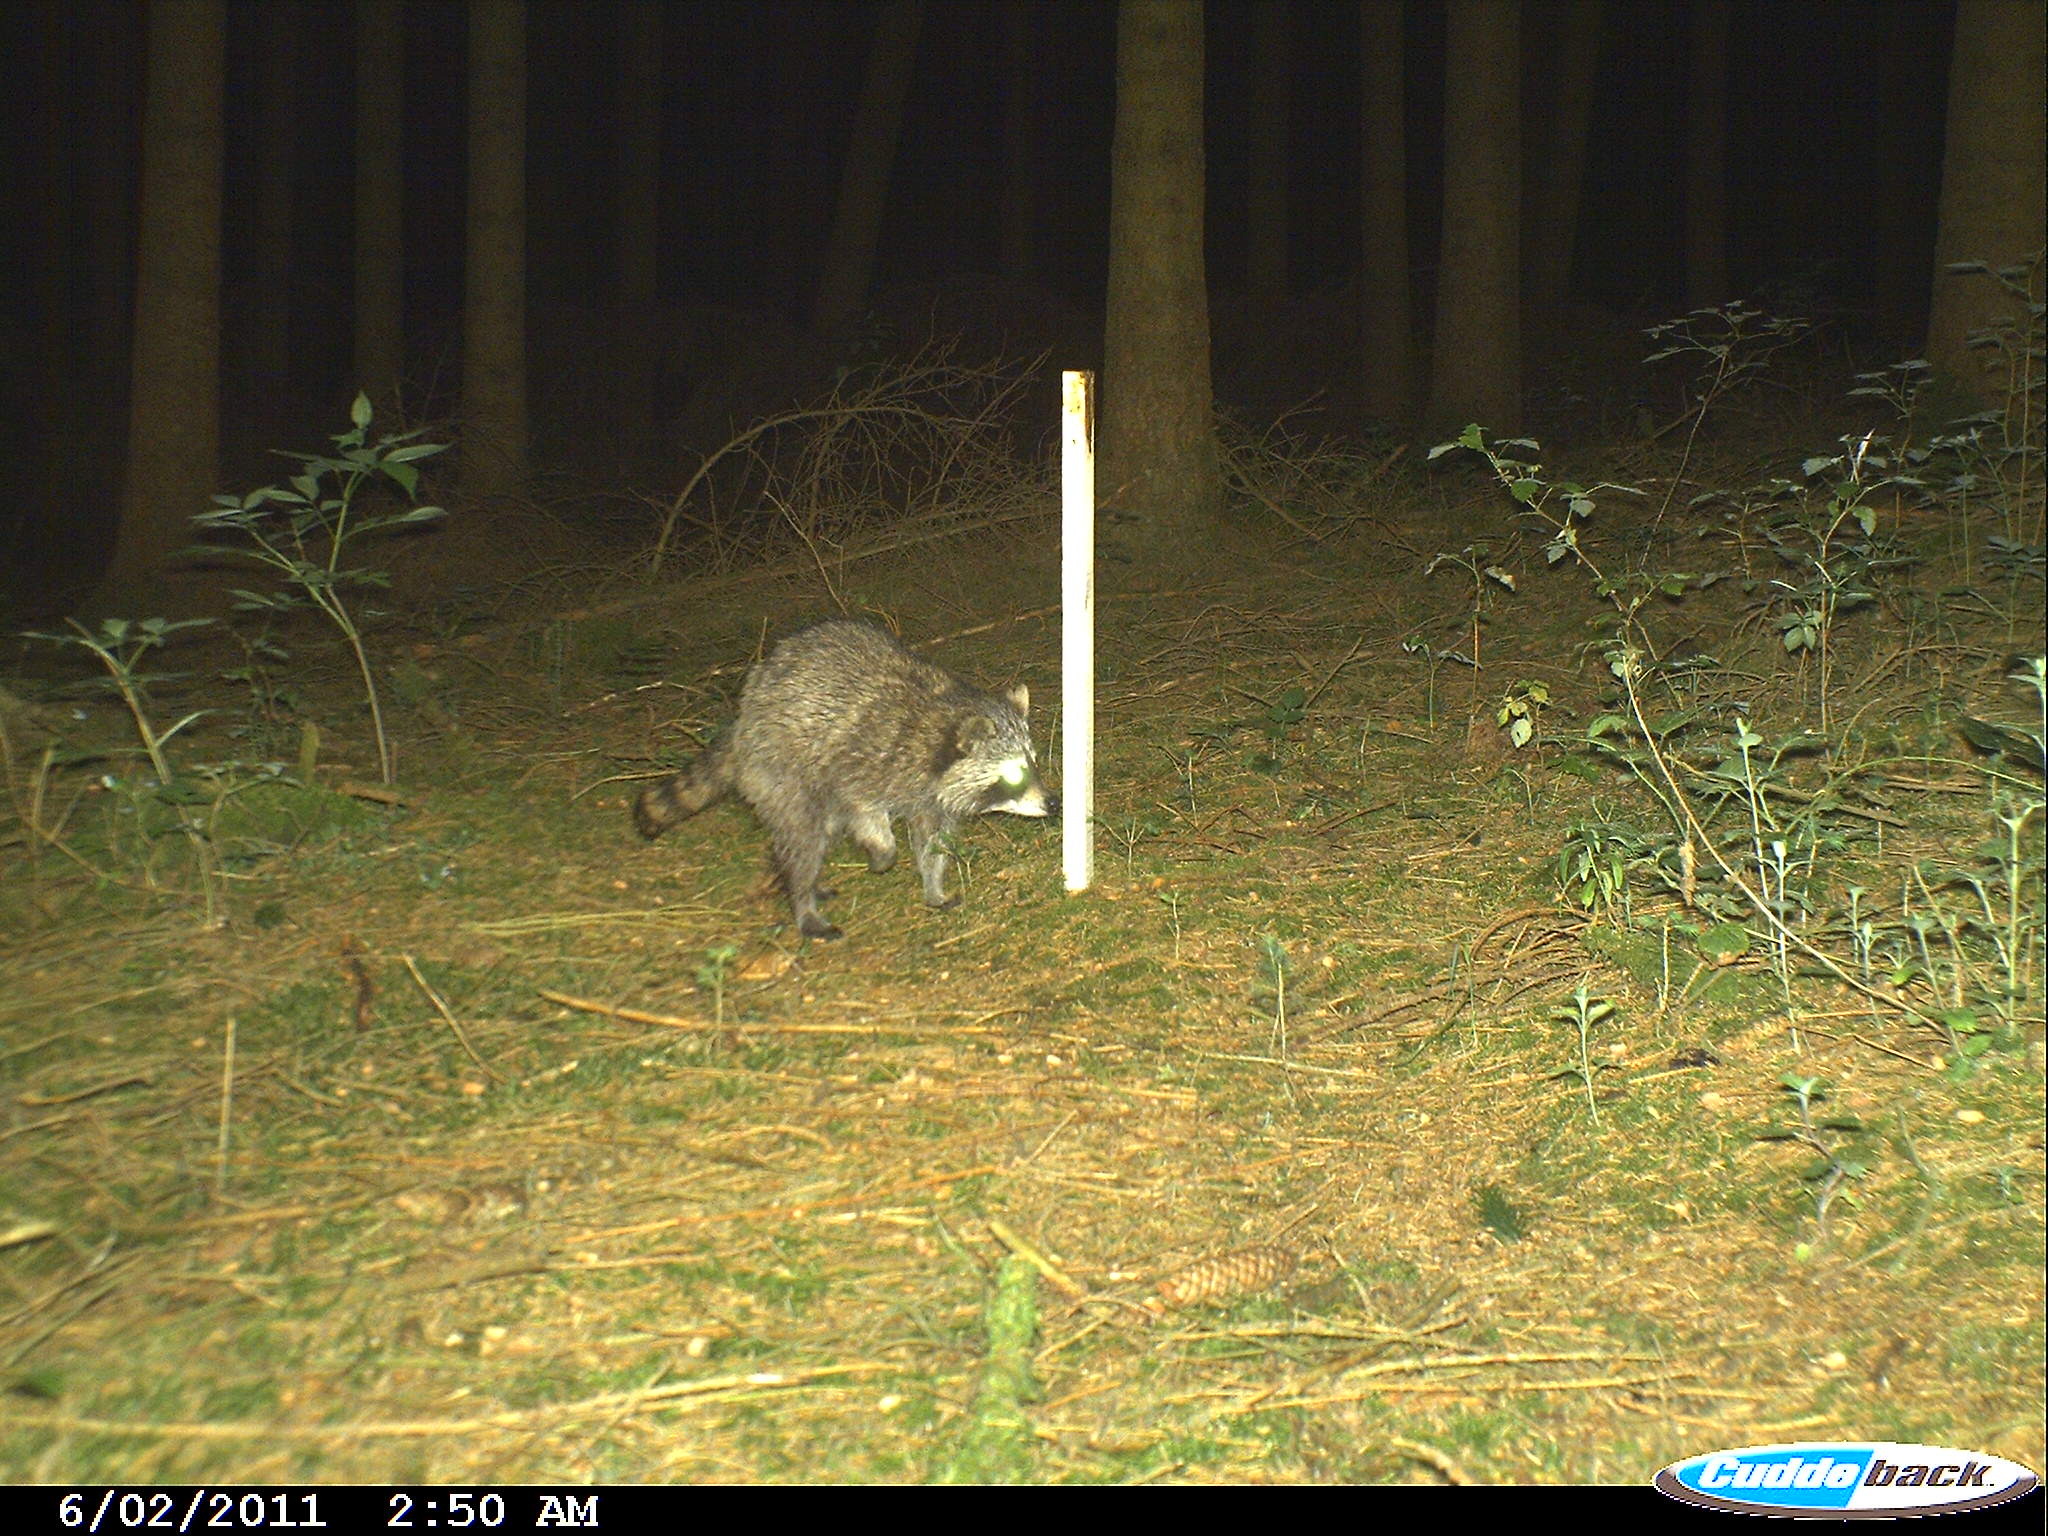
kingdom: Animalia
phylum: Chordata
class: Mammalia
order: Carnivora
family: Procyonidae
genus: Procyon
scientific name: Procyon lotor
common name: Raccoon
